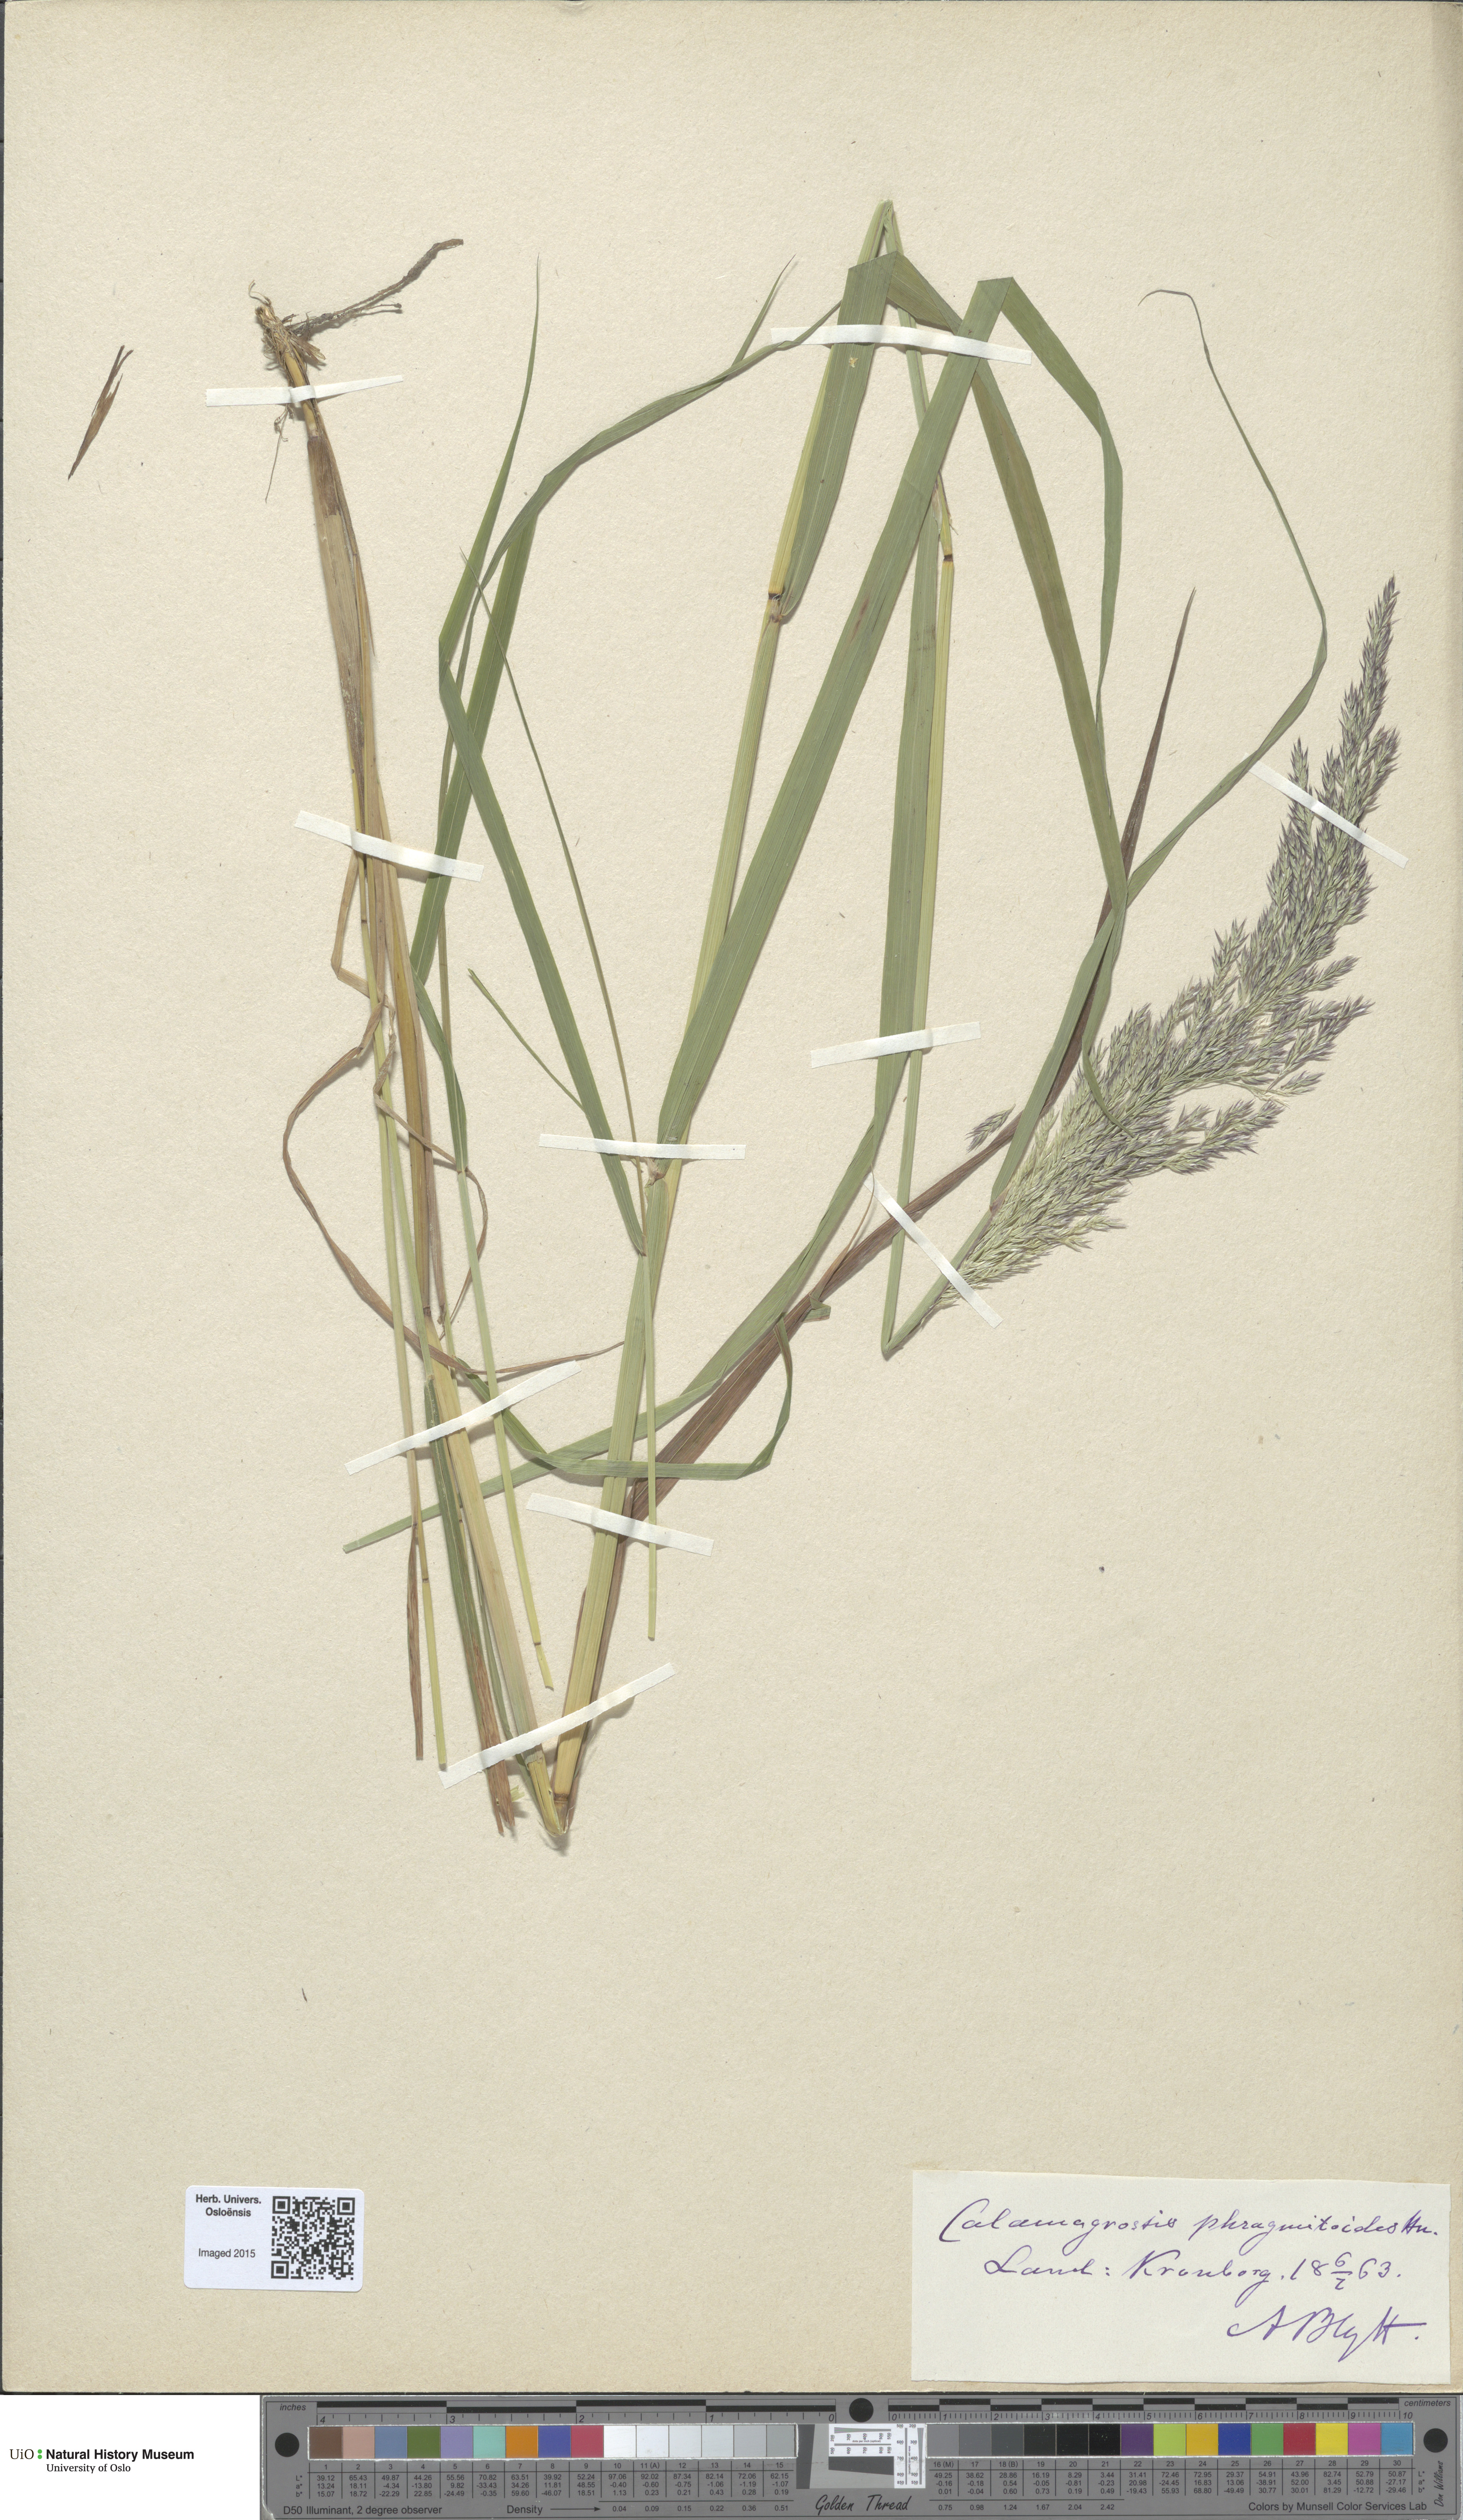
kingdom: Plantae
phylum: Tracheophyta
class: Liliopsida
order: Poales
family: Poaceae
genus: Calamagrostis
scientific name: Calamagrostis purpurea
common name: Scandinavian small-reed
